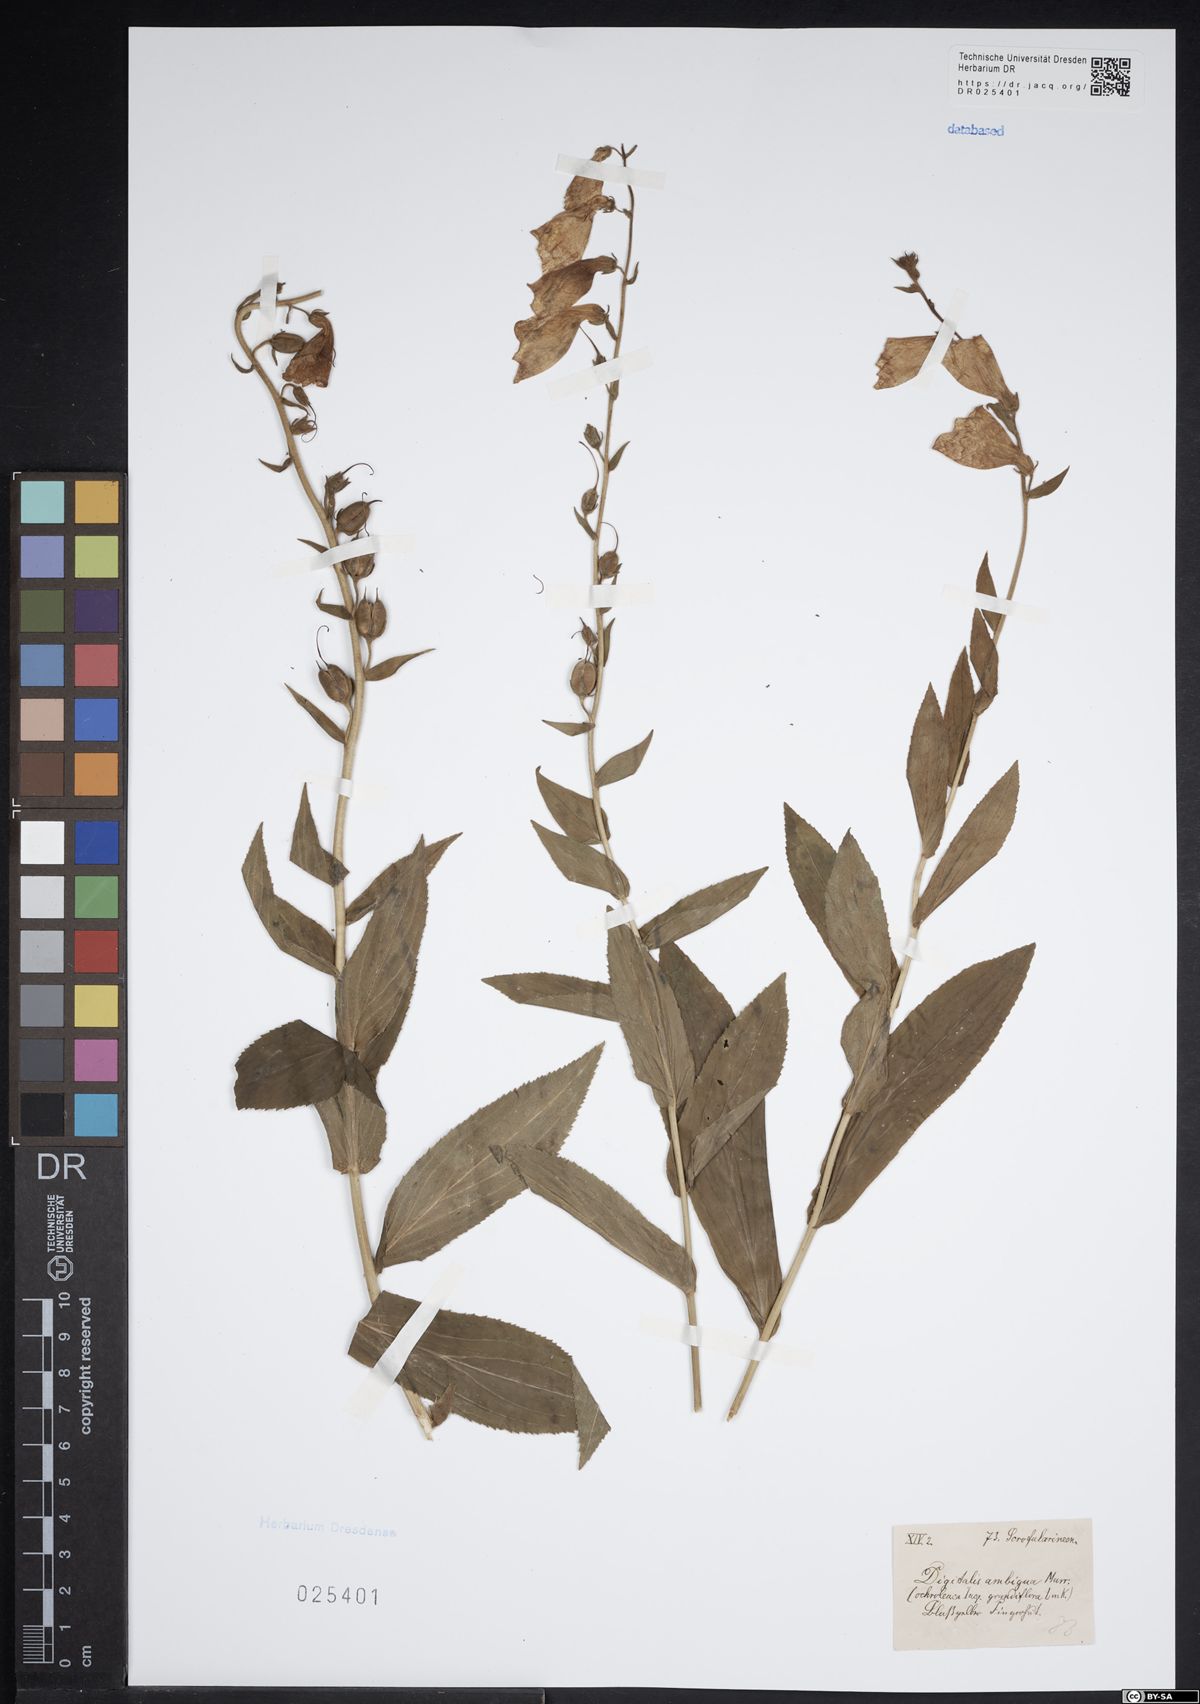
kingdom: Plantae
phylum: Tracheophyta
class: Magnoliopsida
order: Lamiales
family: Plantaginaceae
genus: Digitalis
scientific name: Digitalis grandiflora
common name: Yellow foxglove
